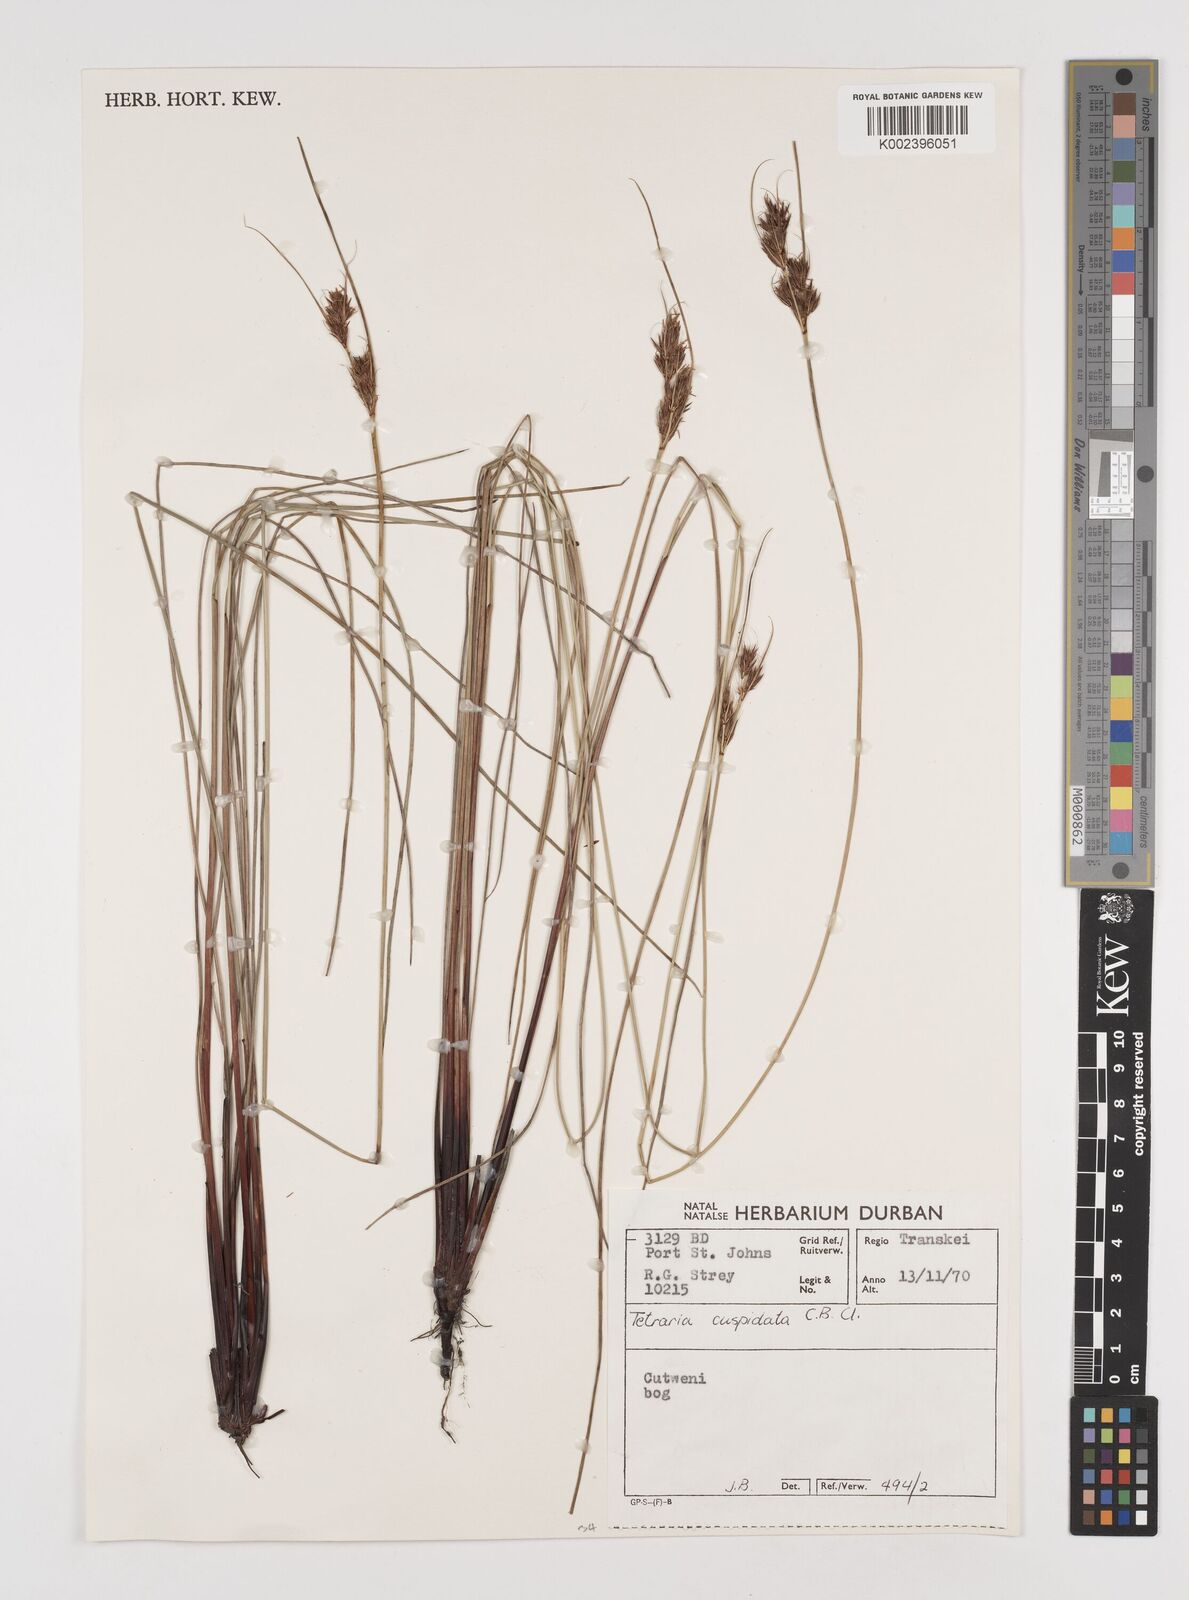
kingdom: Plantae
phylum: Tracheophyta
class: Liliopsida
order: Poales
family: Cyperaceae
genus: Schoenus
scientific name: Schoenus cuspidatus
